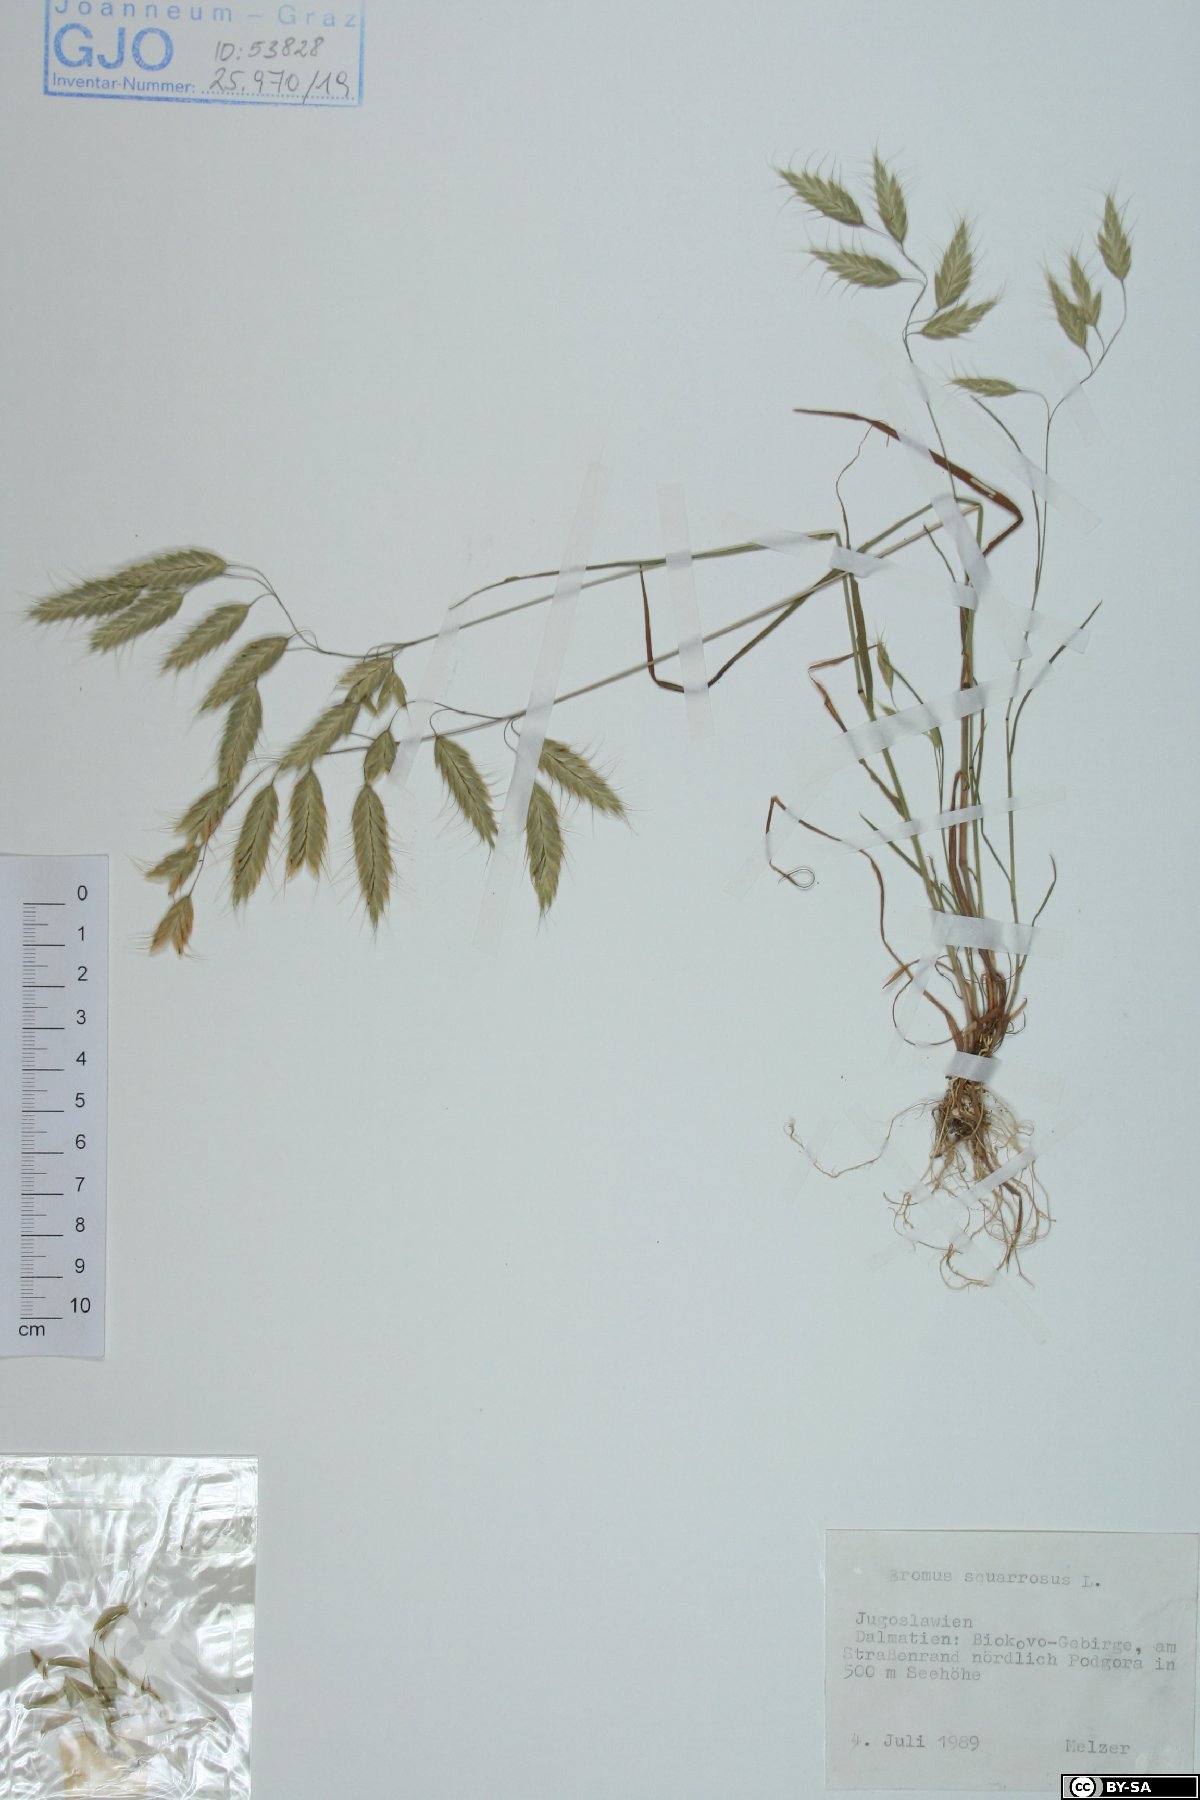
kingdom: Plantae
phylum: Tracheophyta
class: Liliopsida
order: Poales
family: Poaceae
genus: Bromus
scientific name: Bromus squarrosus
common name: Corn brome
